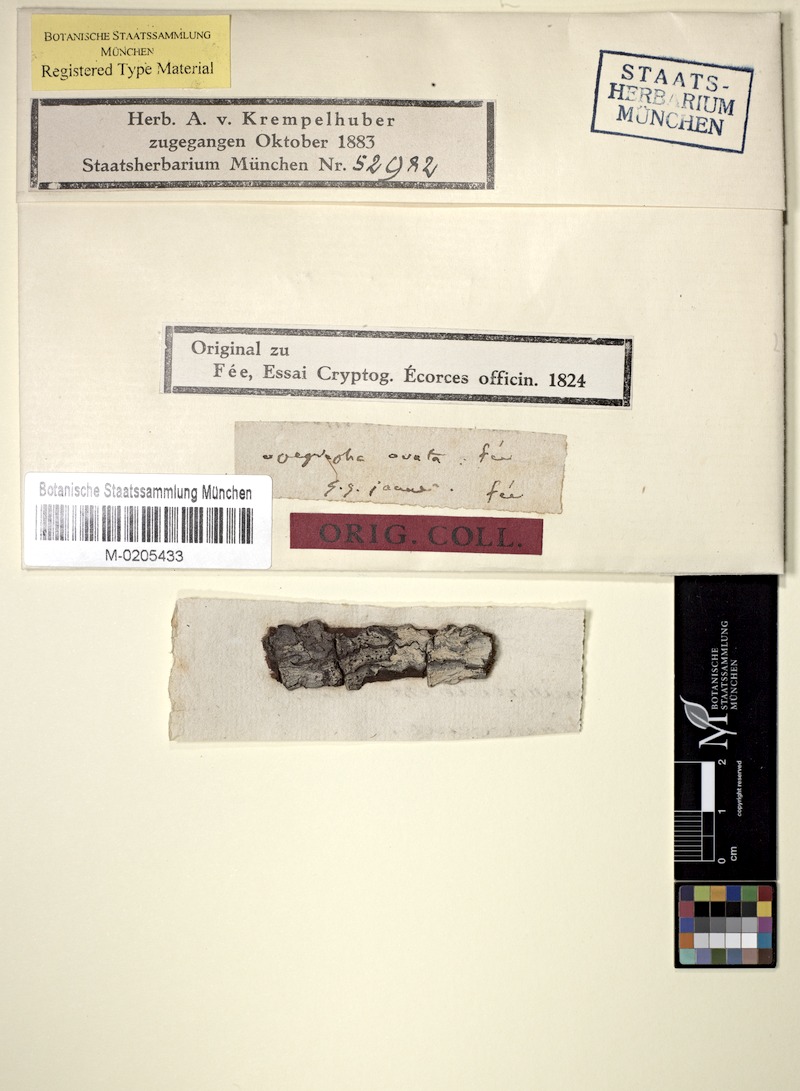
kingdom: Fungi
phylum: Ascomycota
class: Lecanoromycetes
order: Ostropales
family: Graphidaceae
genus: Allographa
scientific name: Allographa ovata
